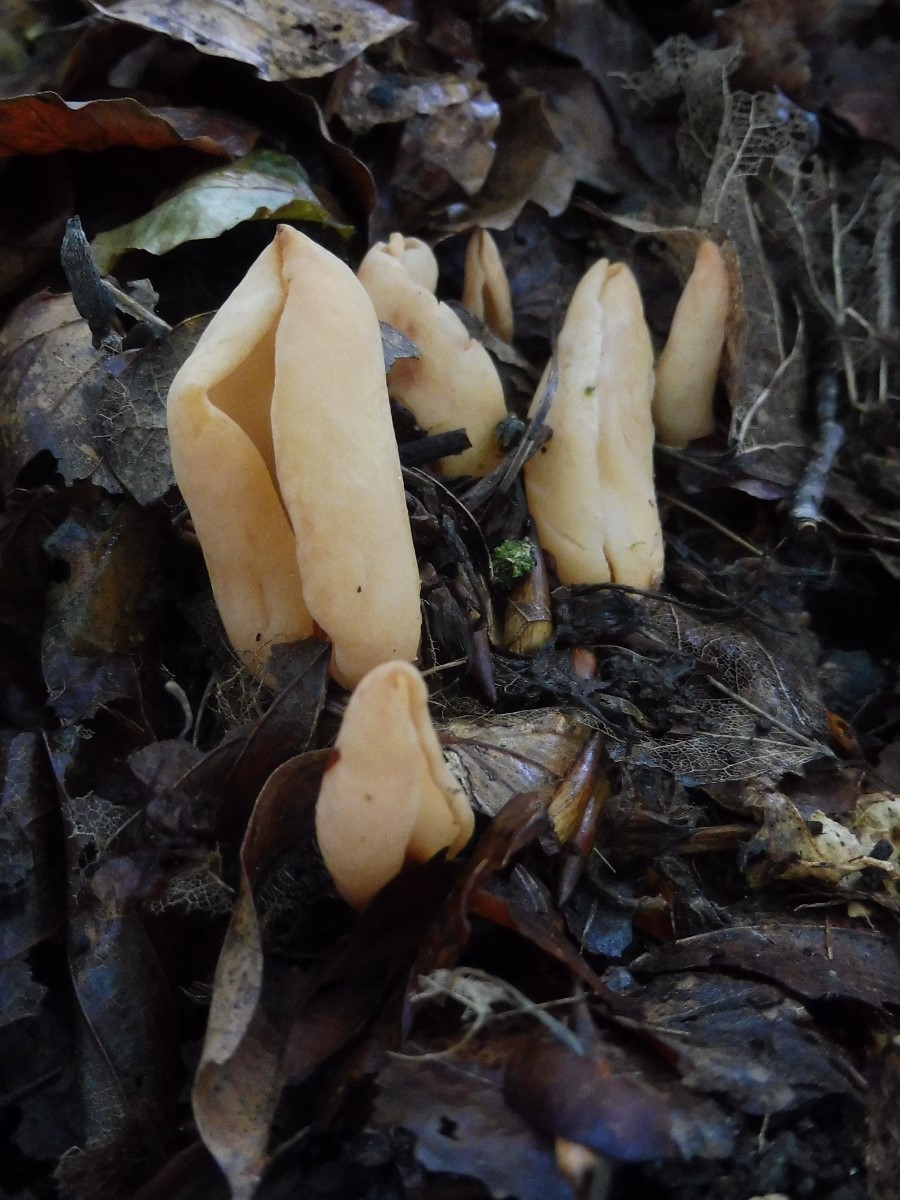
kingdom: Fungi
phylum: Ascomycota
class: Pezizomycetes
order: Pezizales
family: Otideaceae
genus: Otidea
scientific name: Otidea onotica
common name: æsel-ørebæger
